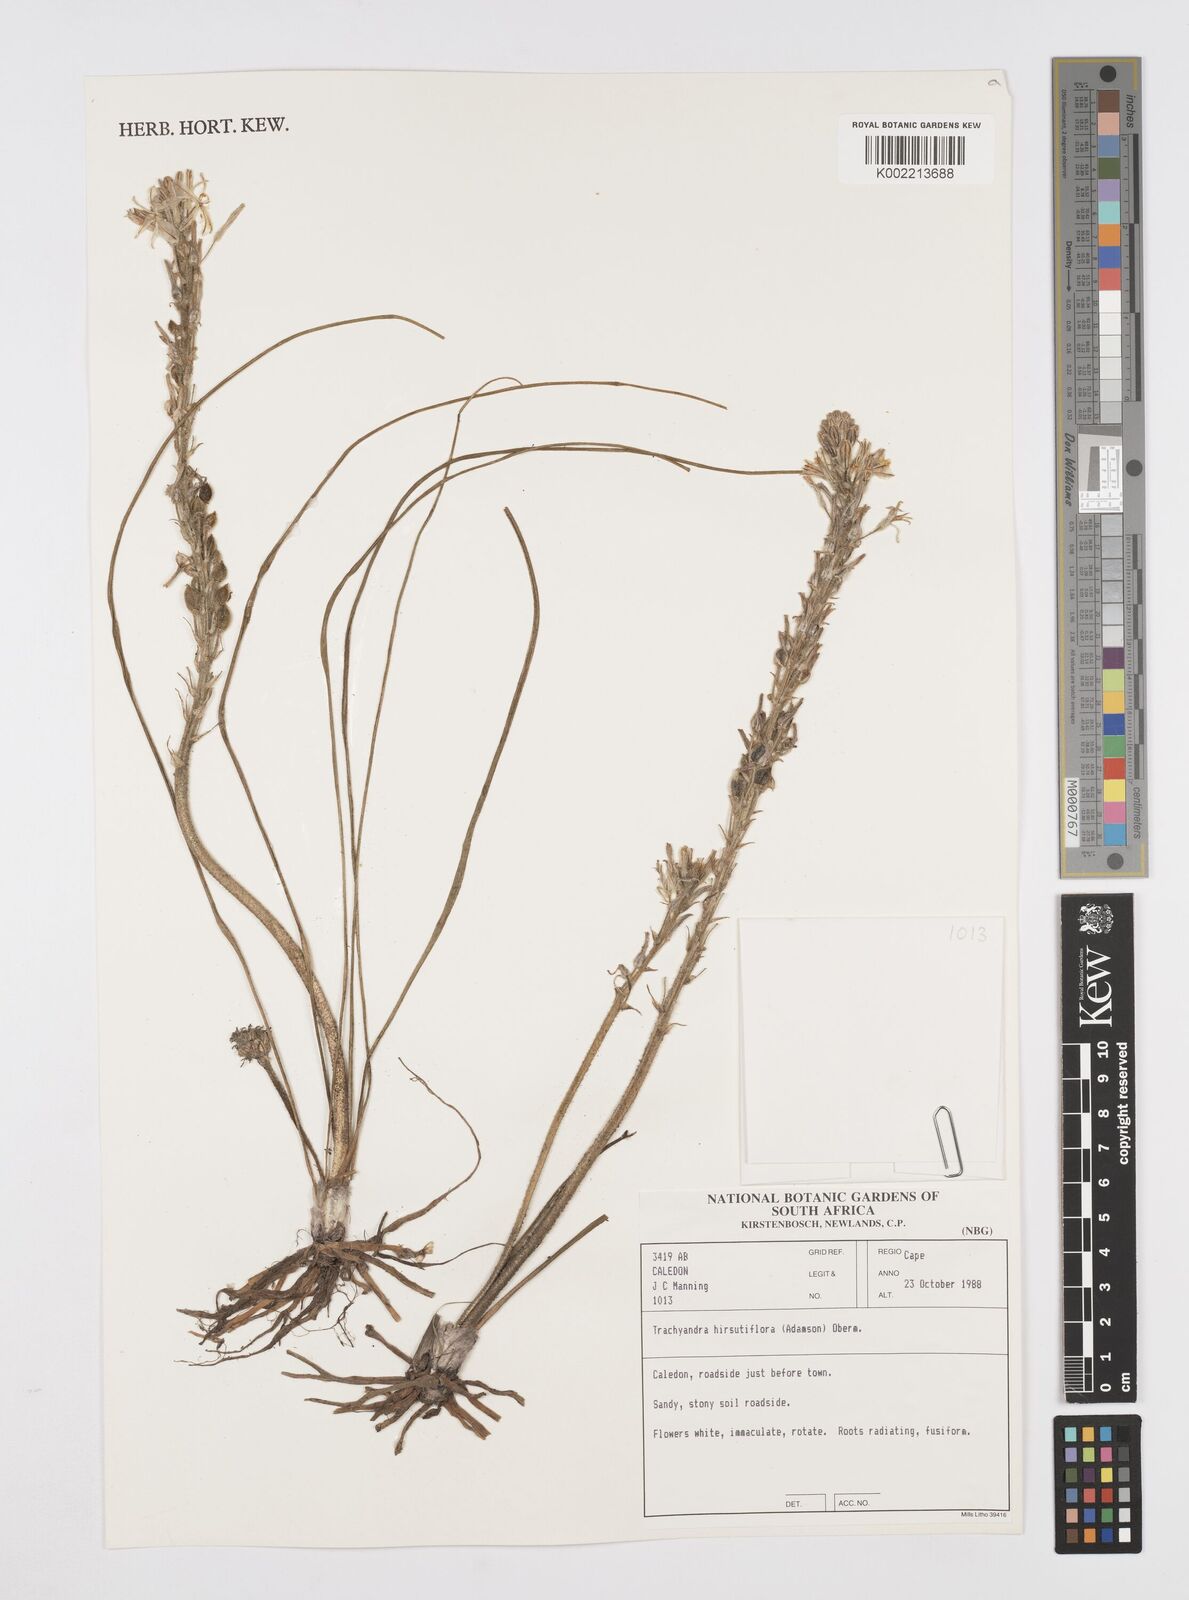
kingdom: Plantae
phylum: Tracheophyta
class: Liliopsida
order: Asparagales
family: Asphodelaceae
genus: Trachyandra
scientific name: Trachyandra hirsutiflora
